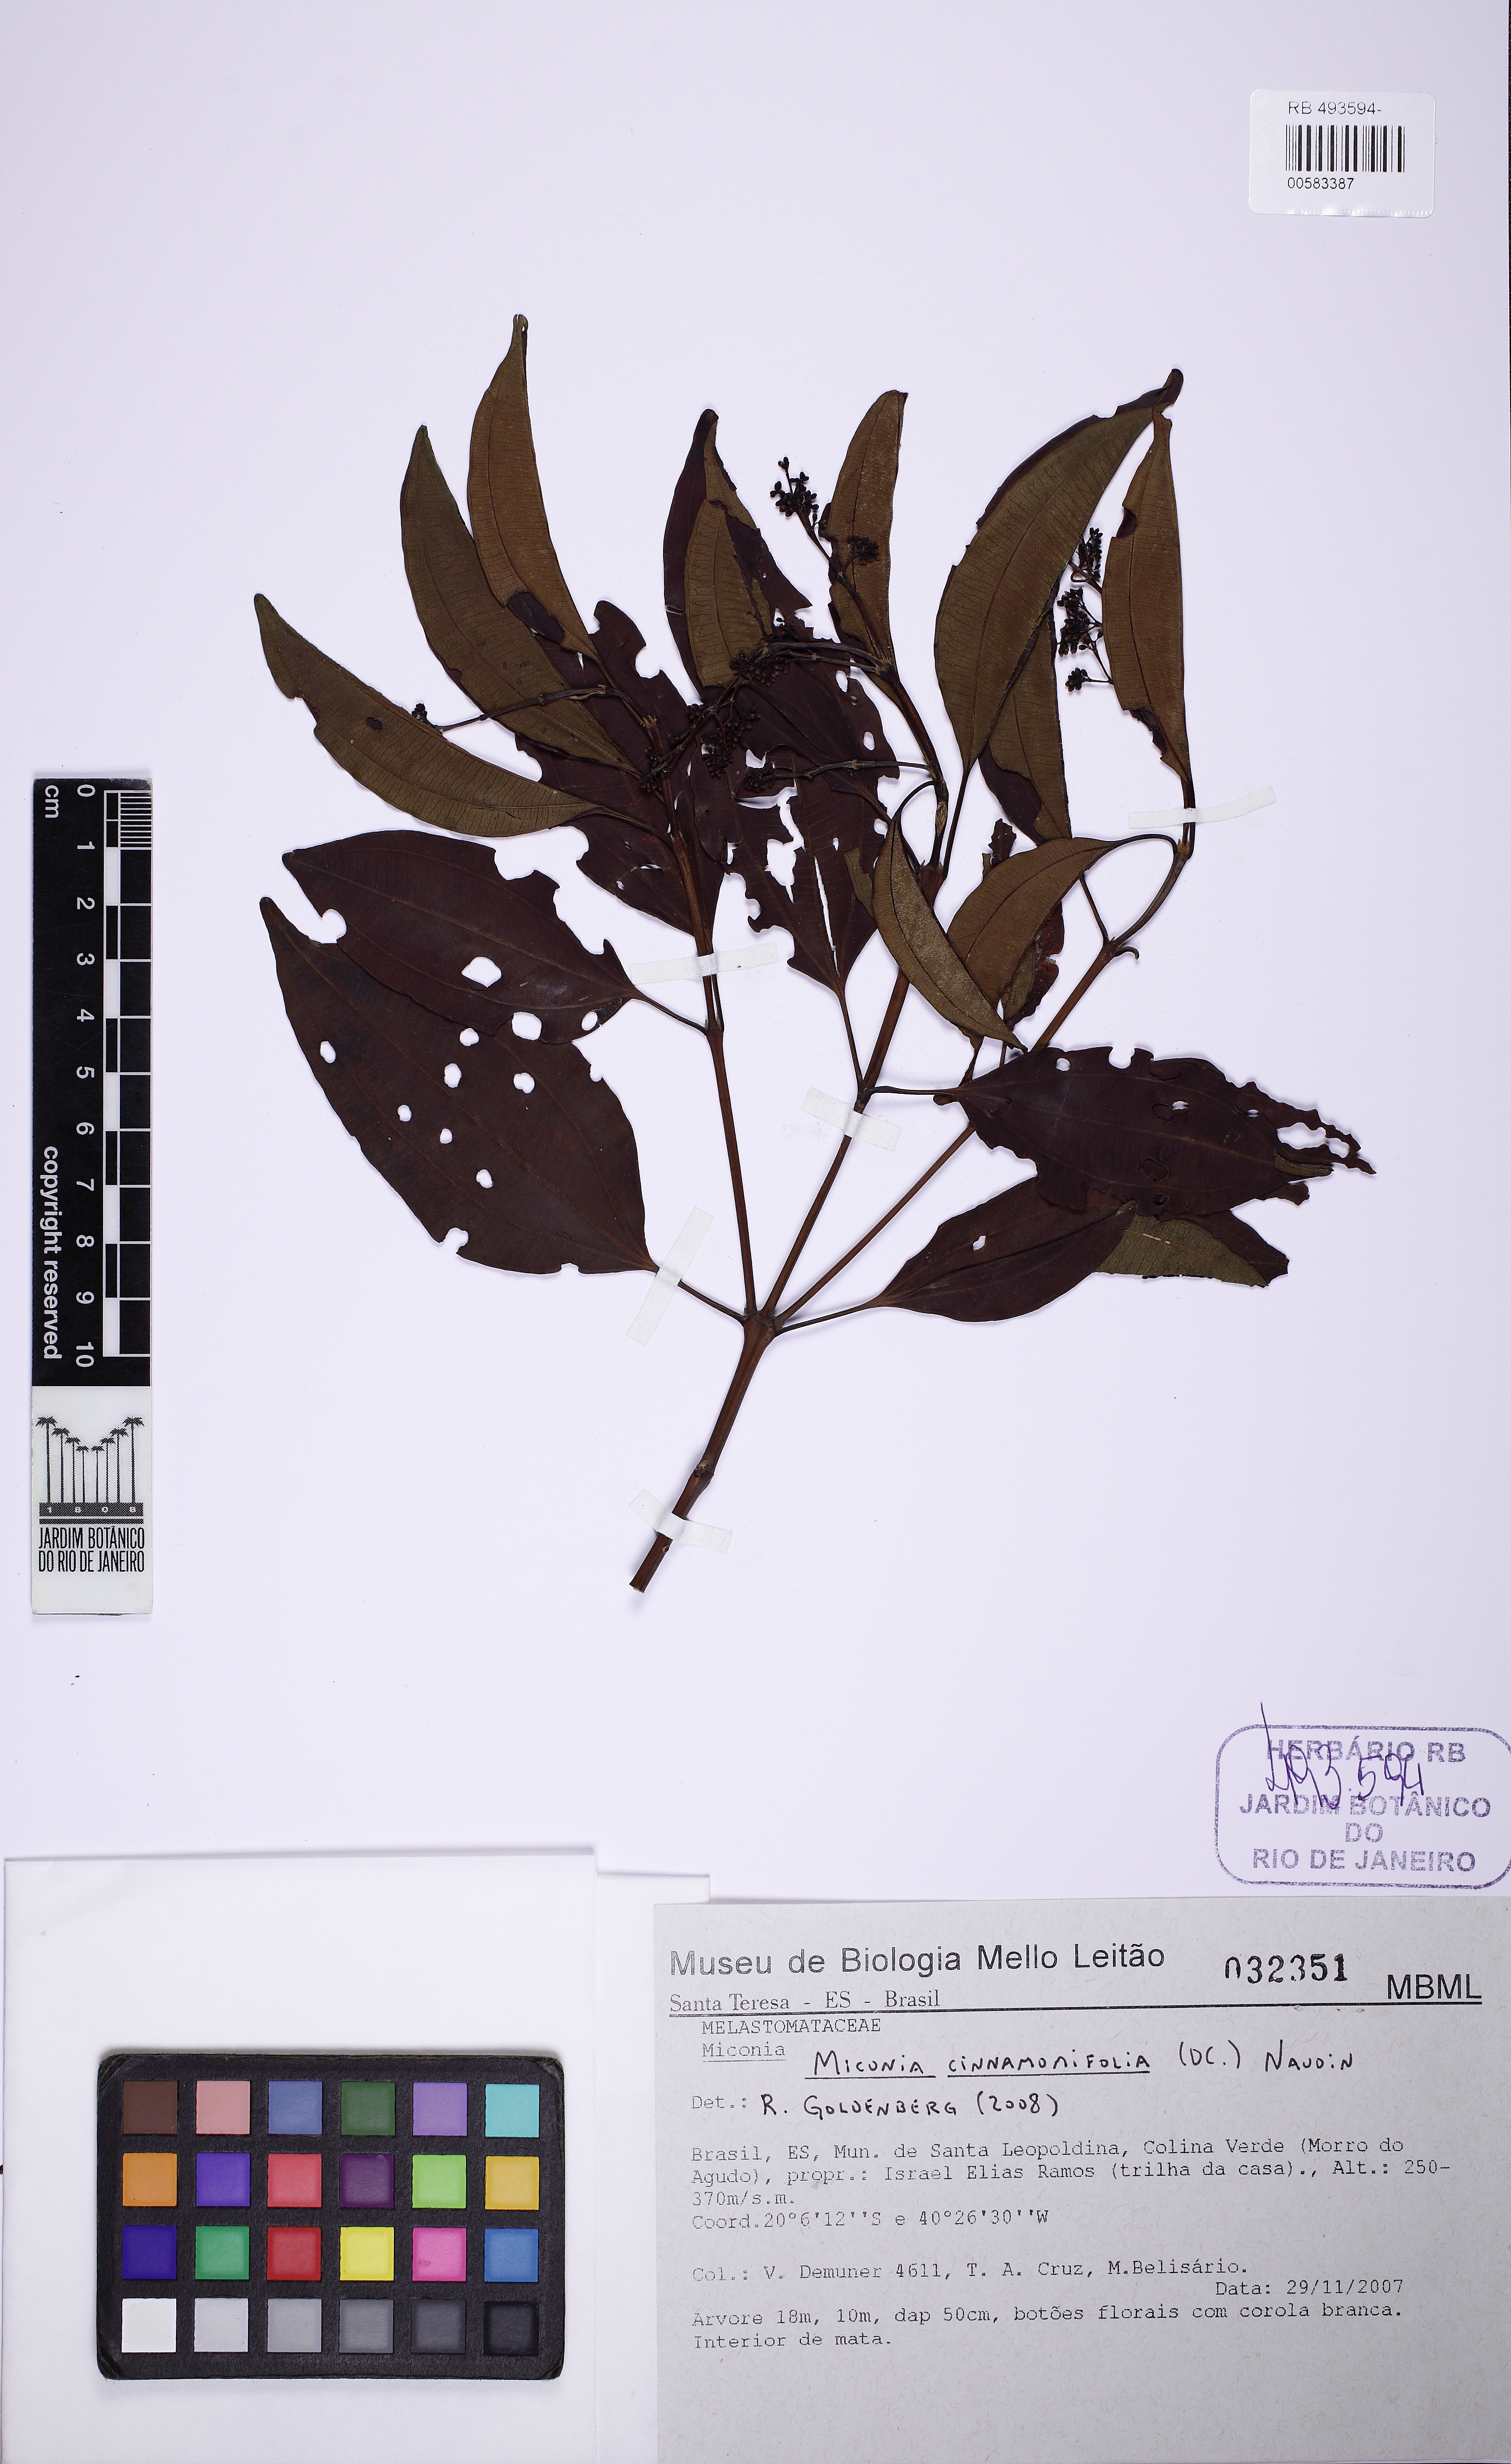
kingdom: Plantae
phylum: Tracheophyta
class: Magnoliopsida
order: Myrtales
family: Melastomataceae
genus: Miconia
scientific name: Miconia cinnamomifolia
